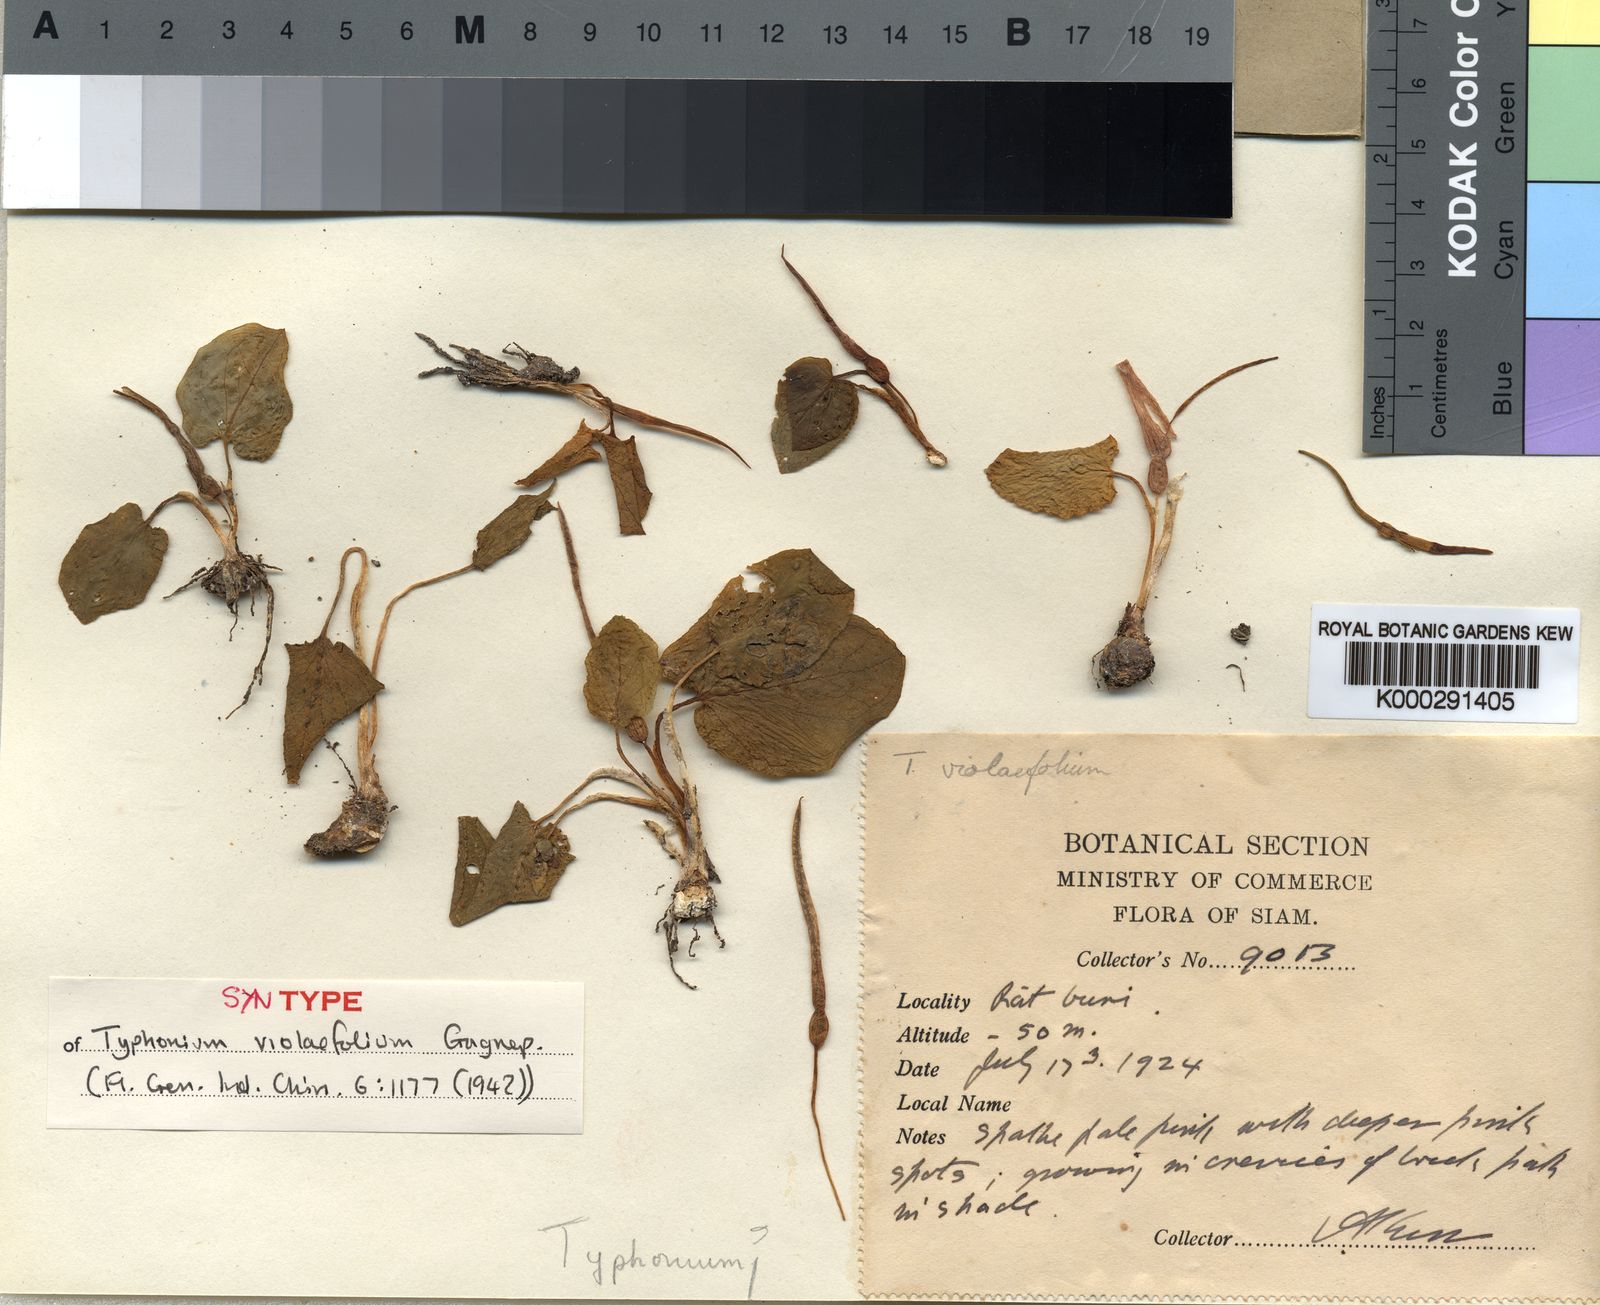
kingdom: Plantae
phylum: Tracheophyta
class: Liliopsida
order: Alismatales
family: Araceae
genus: Typhonium
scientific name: Typhonium violifolium
